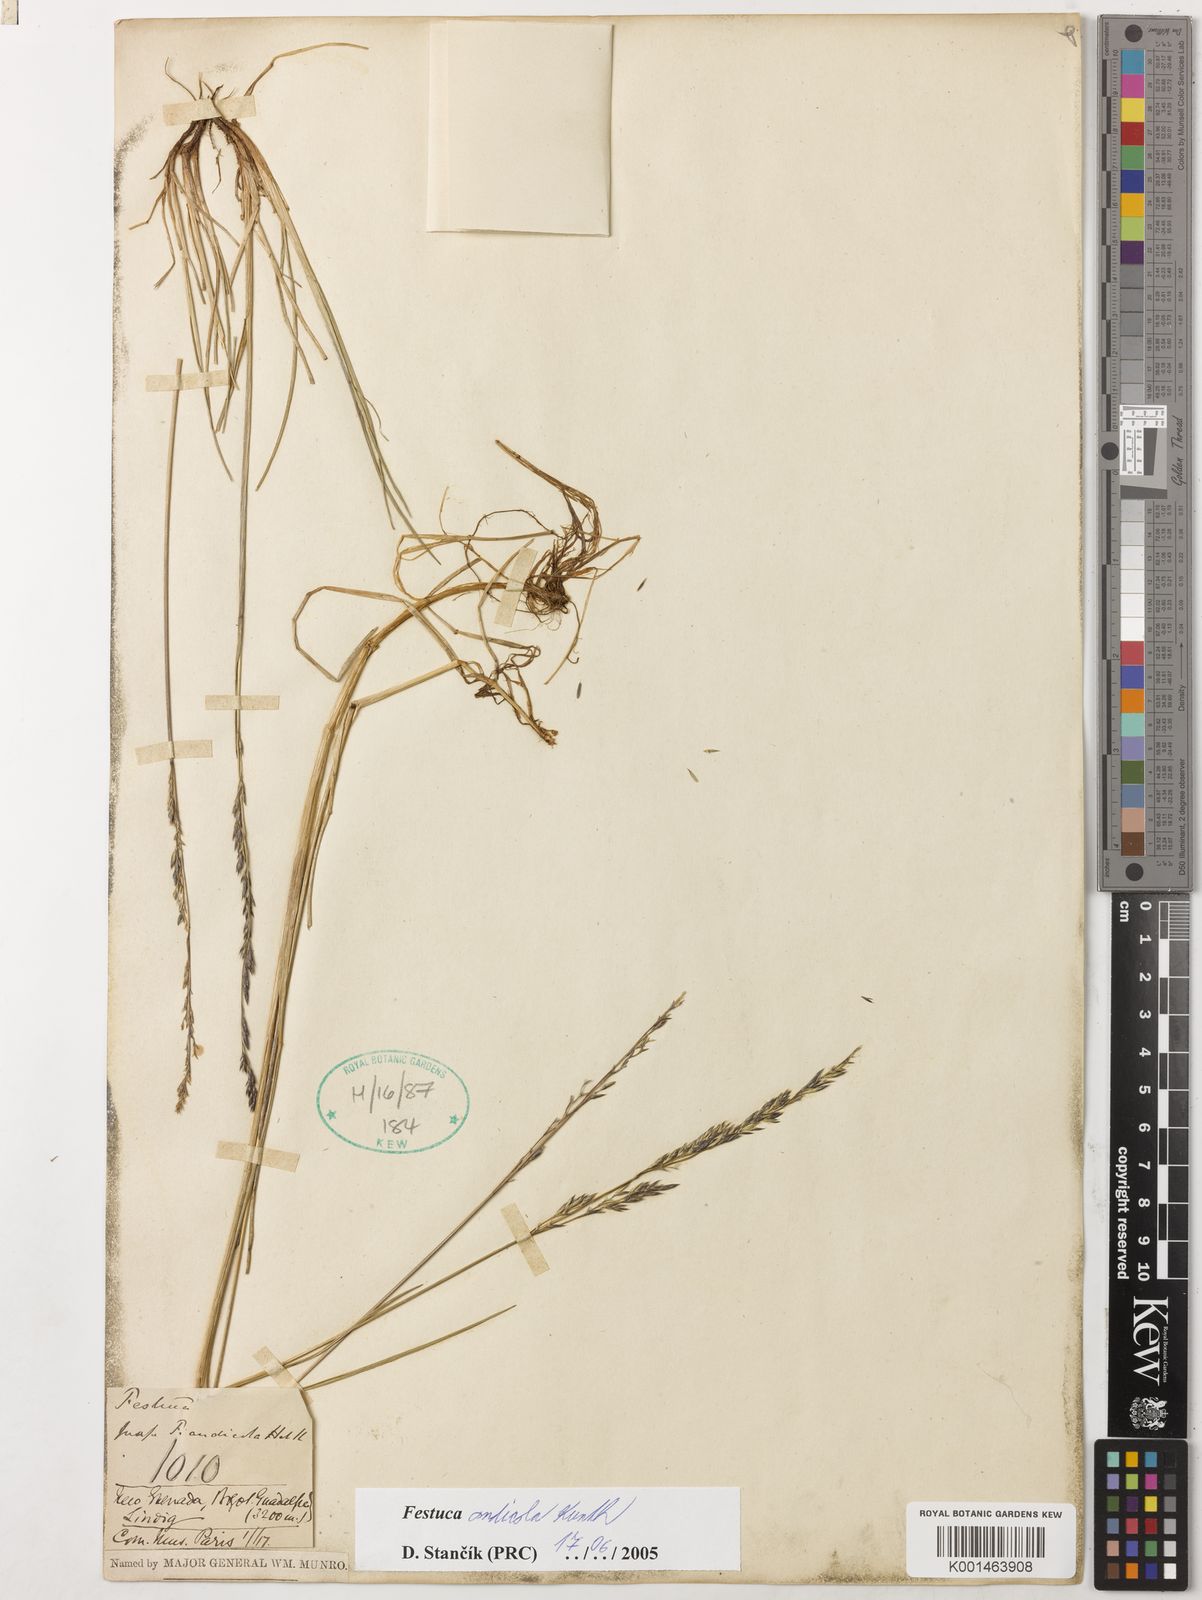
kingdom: Plantae
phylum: Tracheophyta
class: Liliopsida
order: Poales
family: Poaceae
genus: Festuca
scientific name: Festuca andicola
